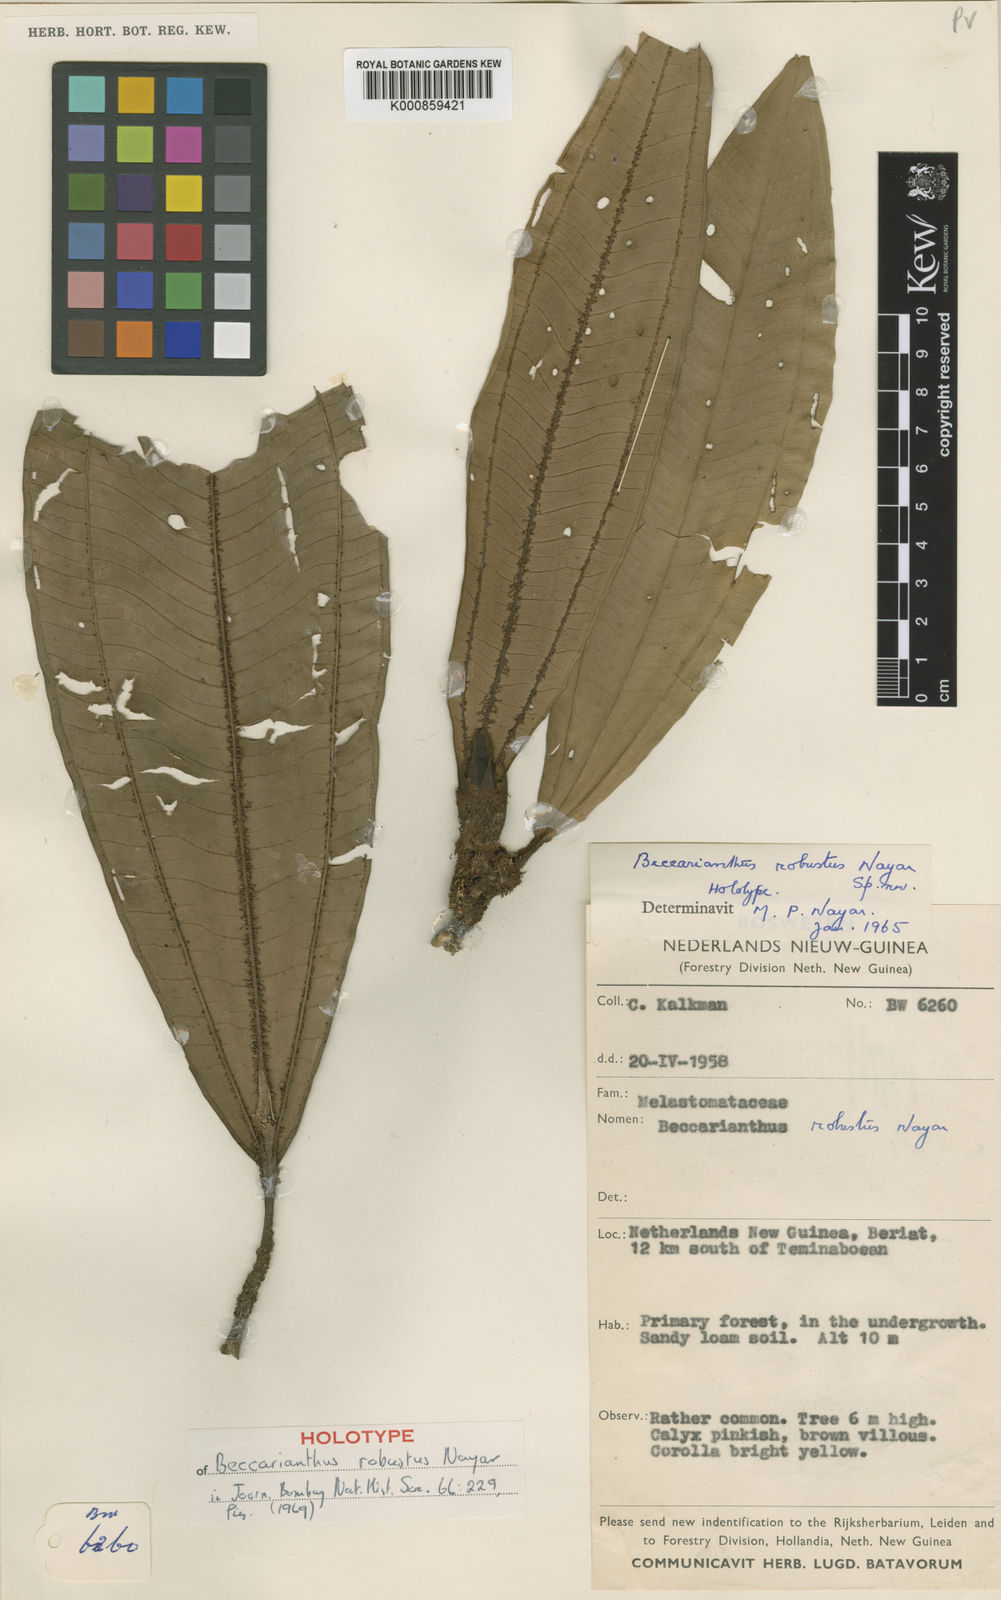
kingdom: Plantae
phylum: Tracheophyta
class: Magnoliopsida
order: Myrtales
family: Melastomataceae
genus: Beccarianthus
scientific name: Beccarianthus robustus
